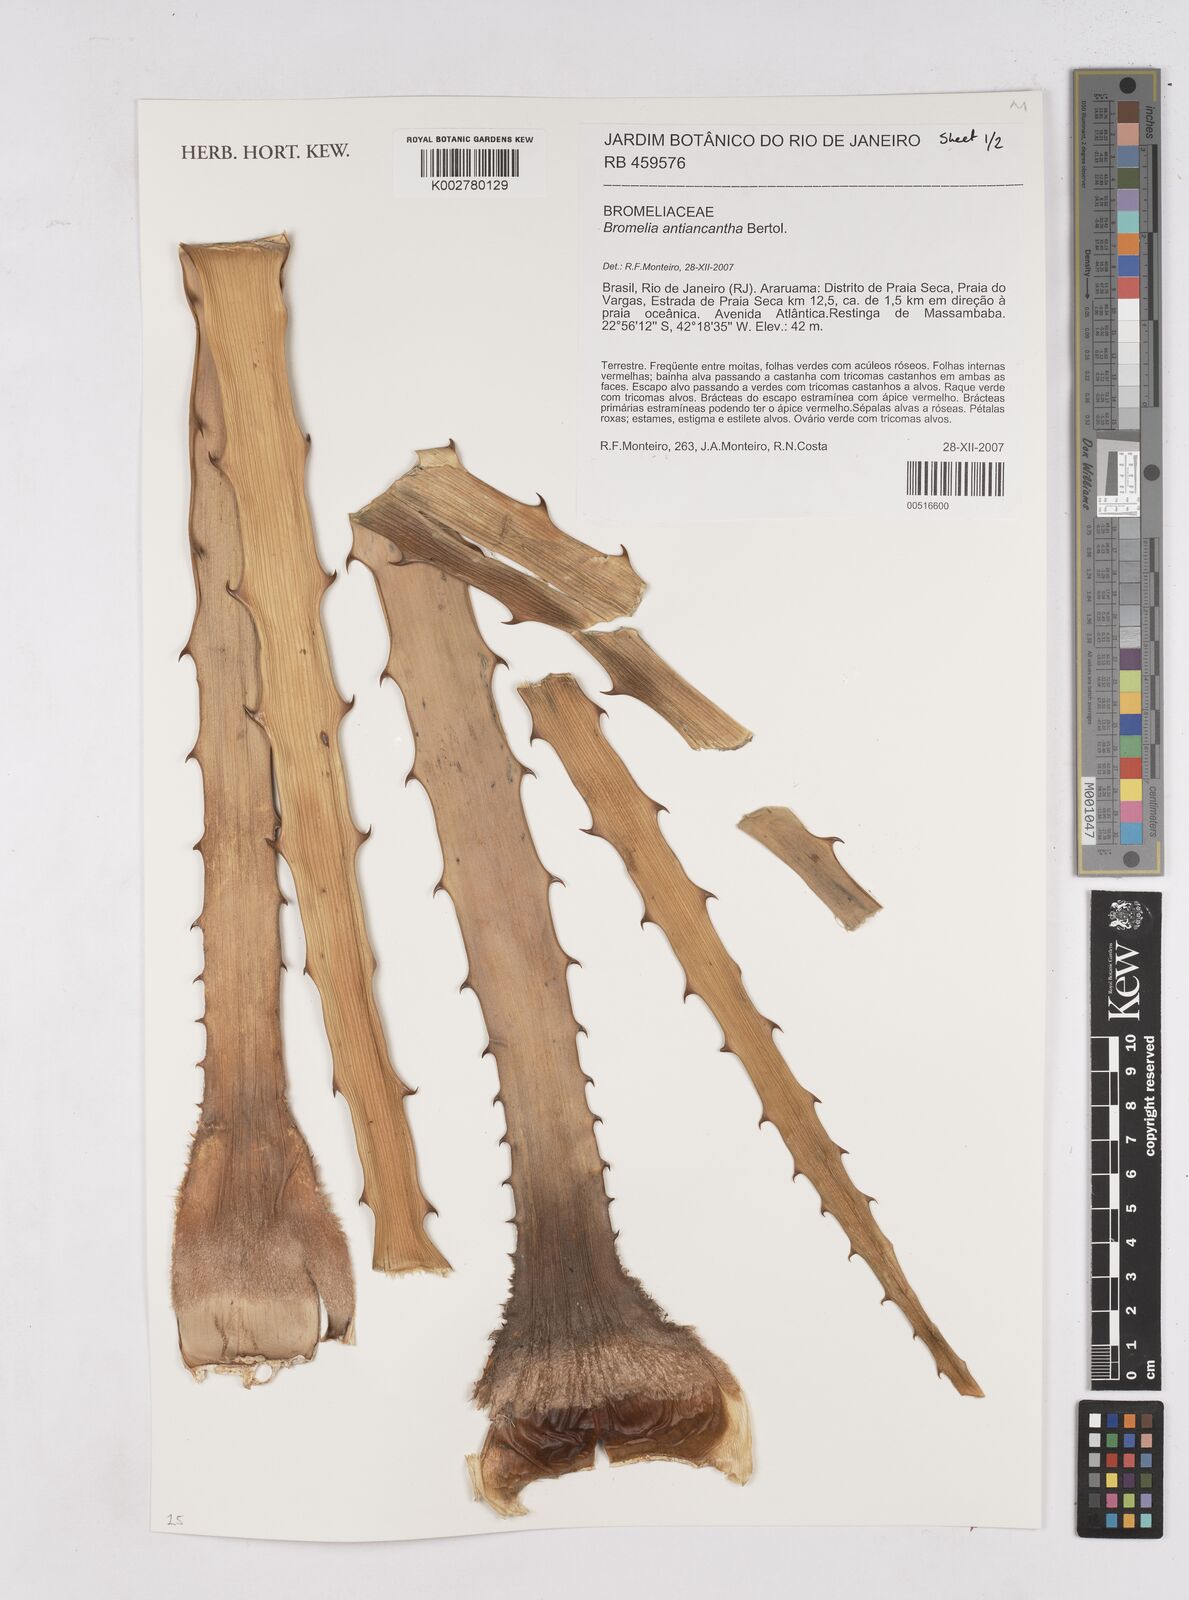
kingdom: Plantae
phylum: Tracheophyta
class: Liliopsida
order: Poales
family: Bromeliaceae
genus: Bromelia
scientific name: Bromelia antiacantha
